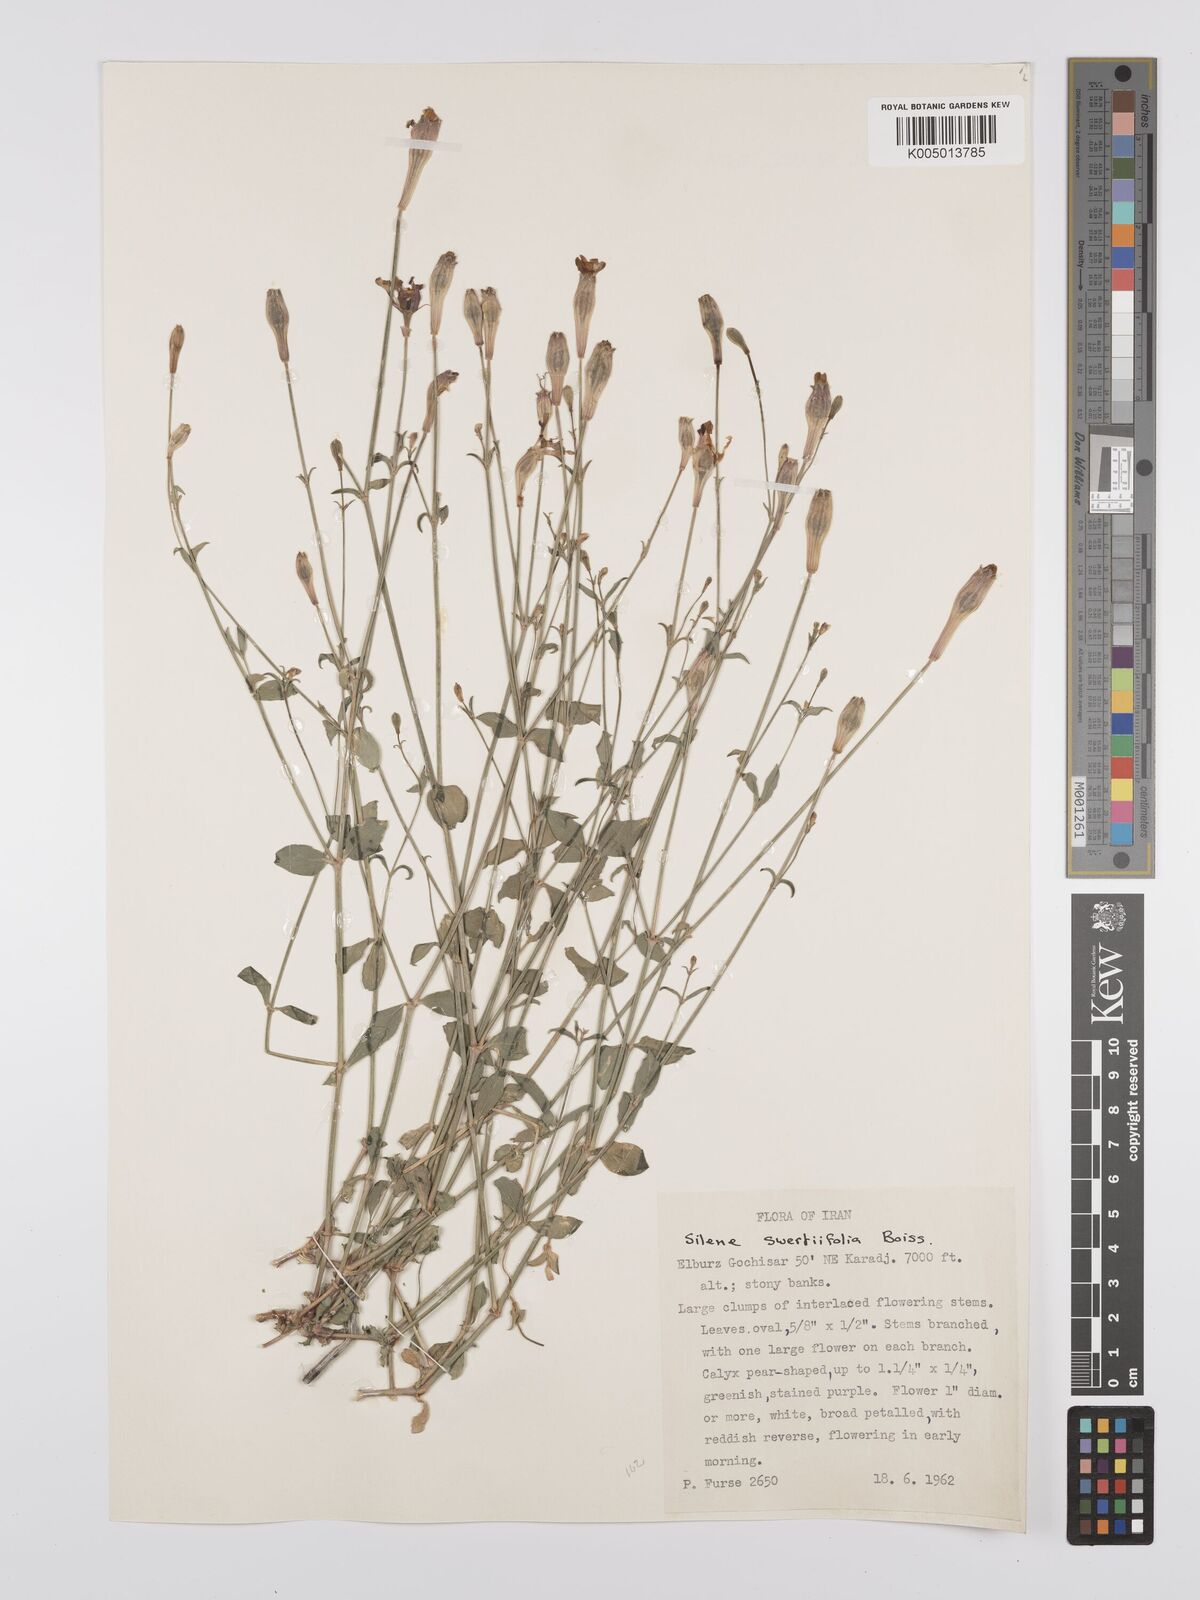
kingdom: Plantae
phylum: Tracheophyta
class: Magnoliopsida
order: Caryophyllales
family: Caryophyllaceae
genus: Silene
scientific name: Silene swertiifolia
